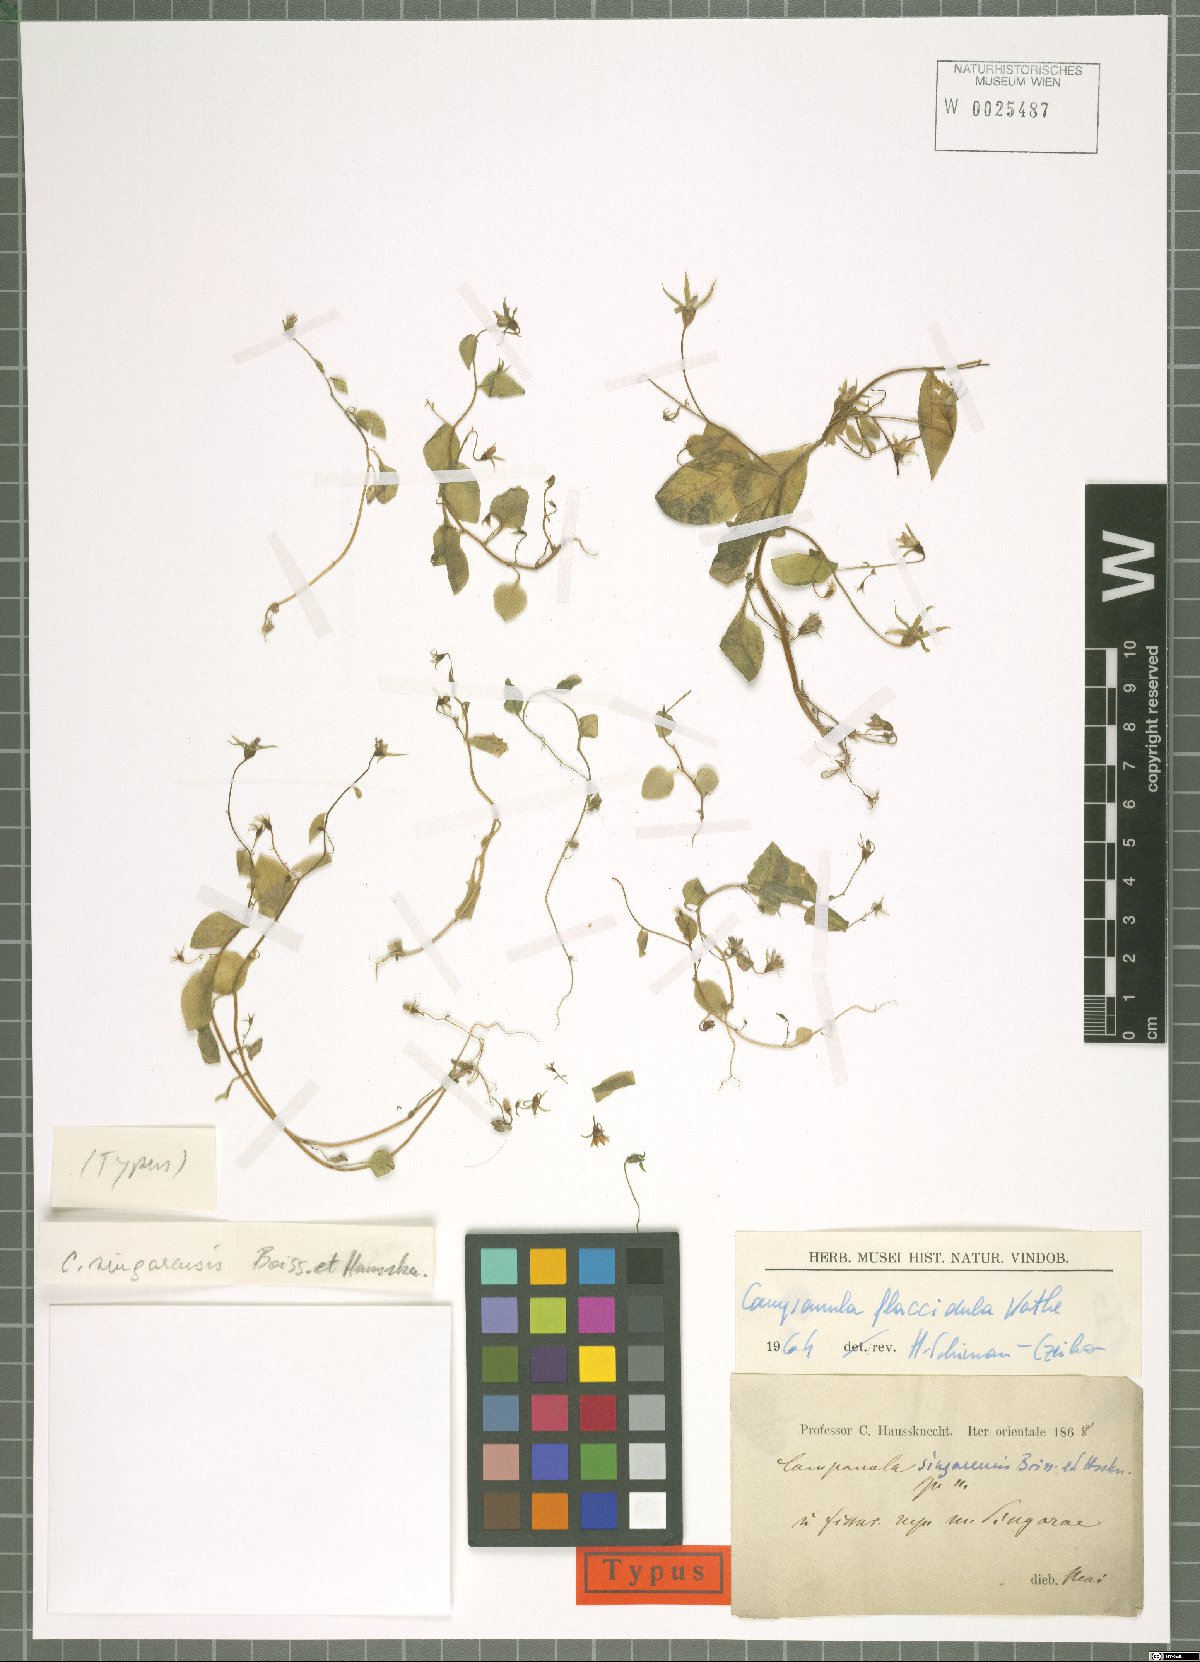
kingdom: Plantae
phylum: Tracheophyta
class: Magnoliopsida
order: Asterales
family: Campanulaceae
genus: Campanula
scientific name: Campanula flaccidula
